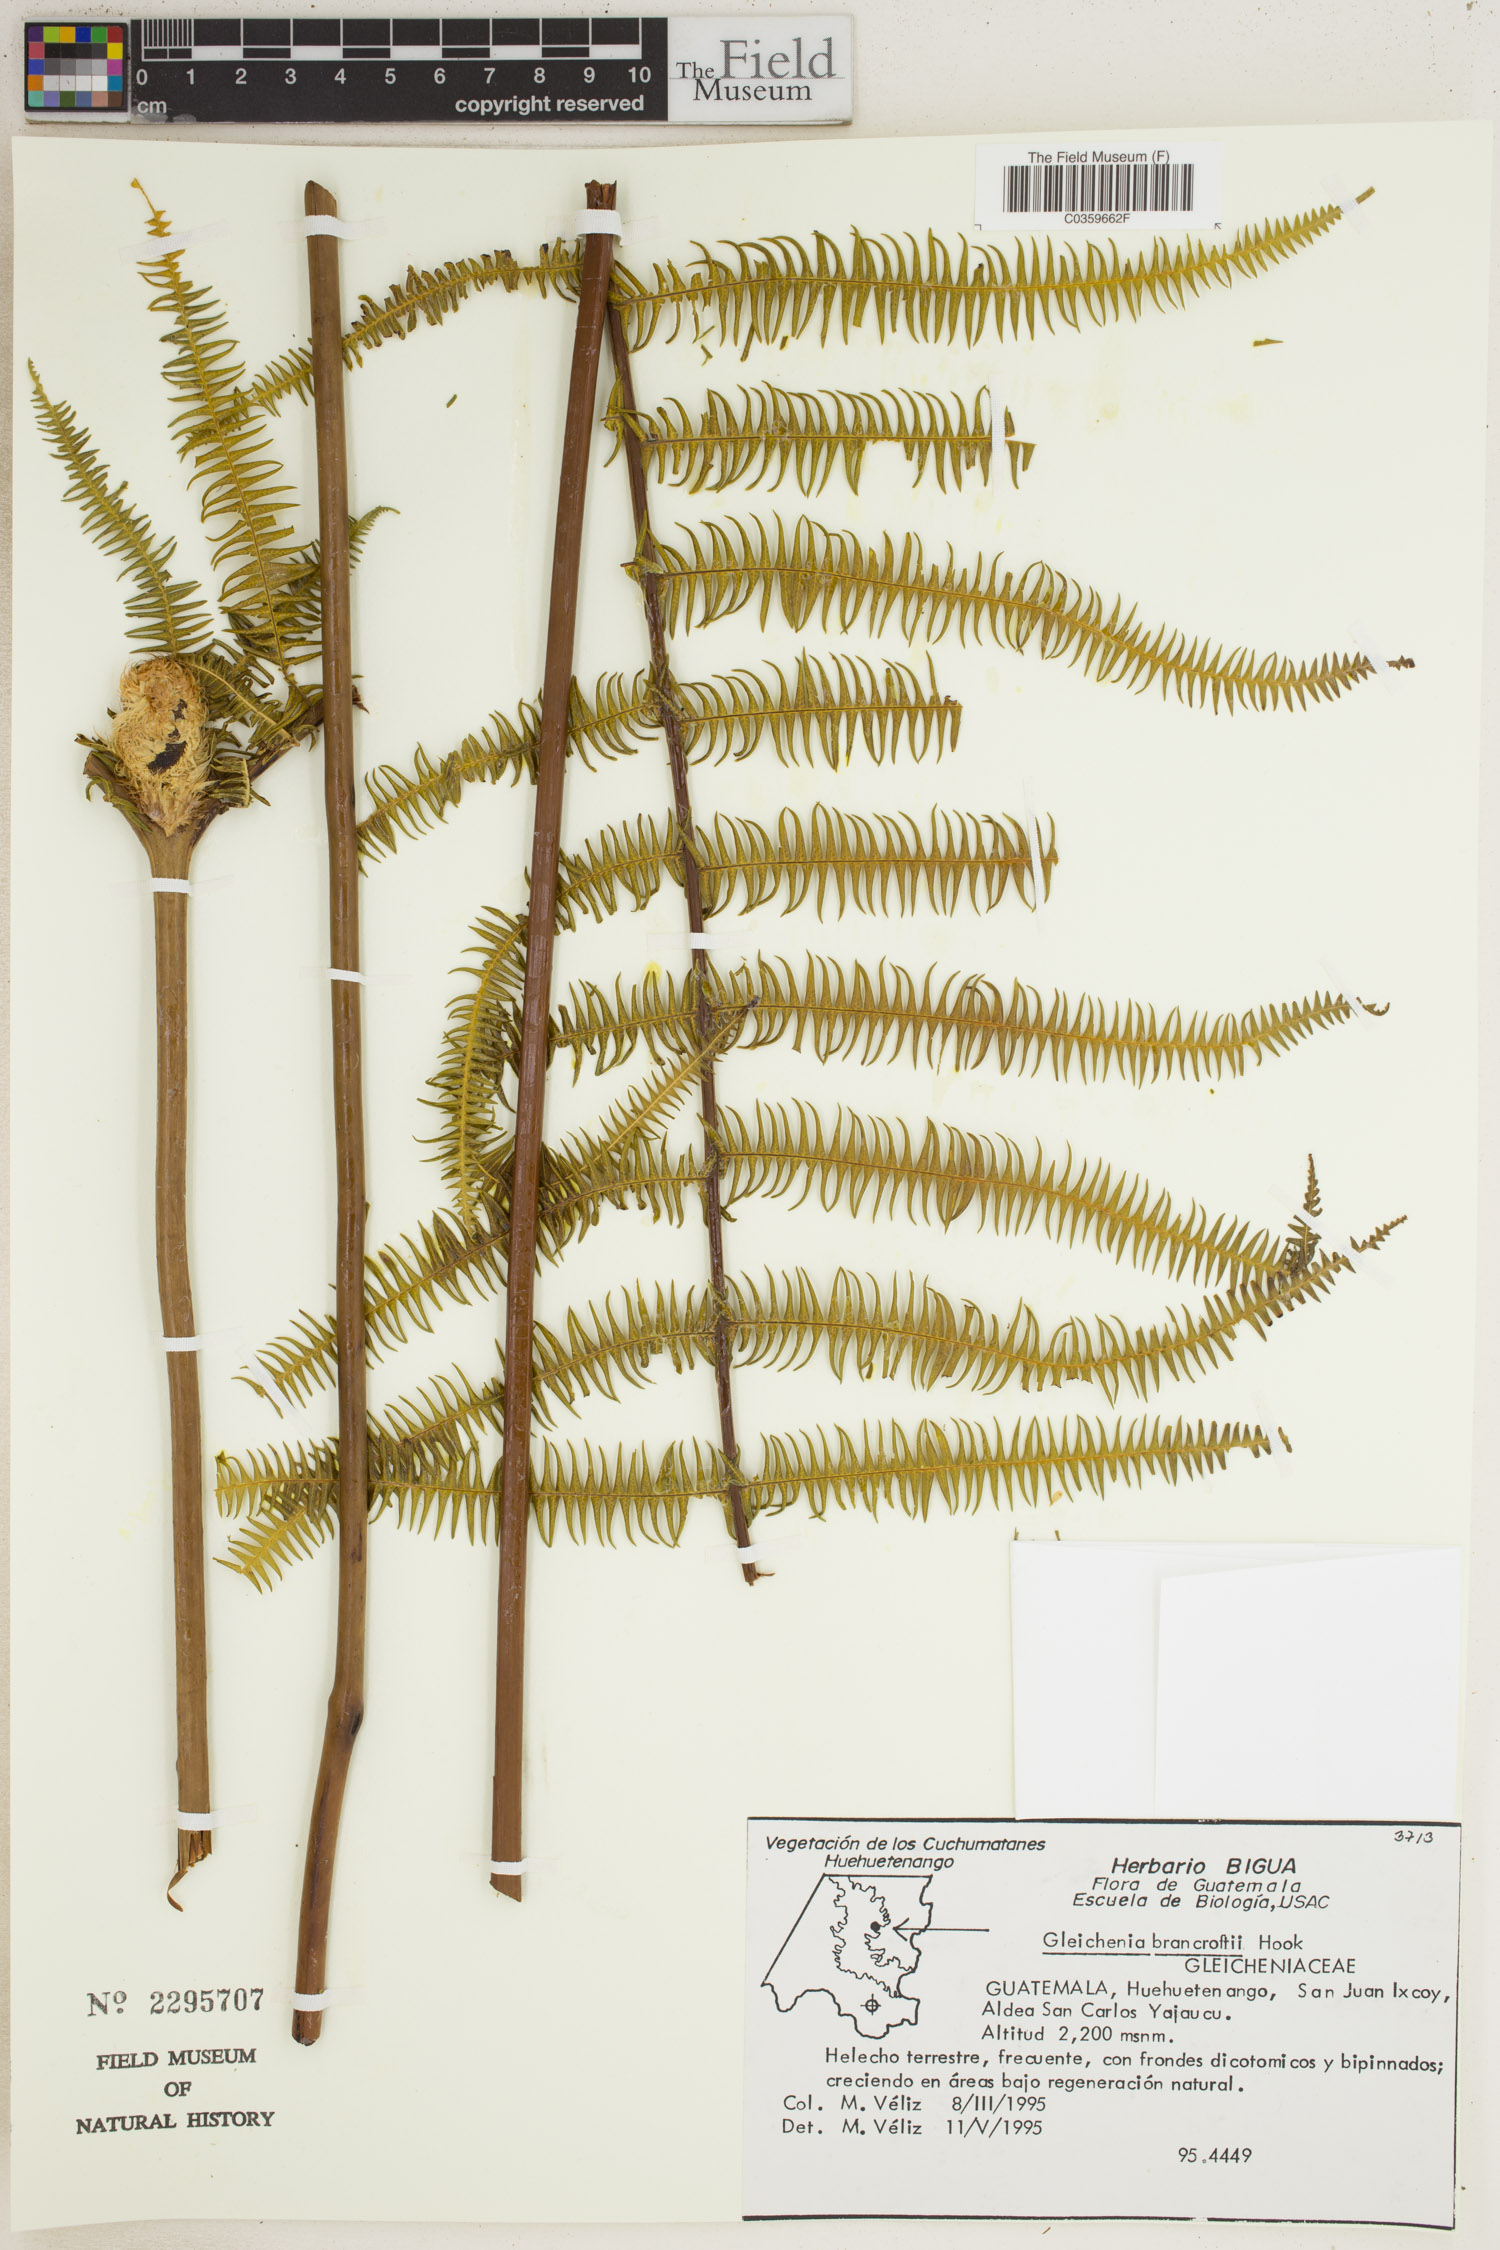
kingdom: Plantae
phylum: Tracheophyta
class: Polypodiopsida
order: Gleicheniales
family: Gleicheniaceae
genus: Diplopterygium
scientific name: Diplopterygium bancroftii
